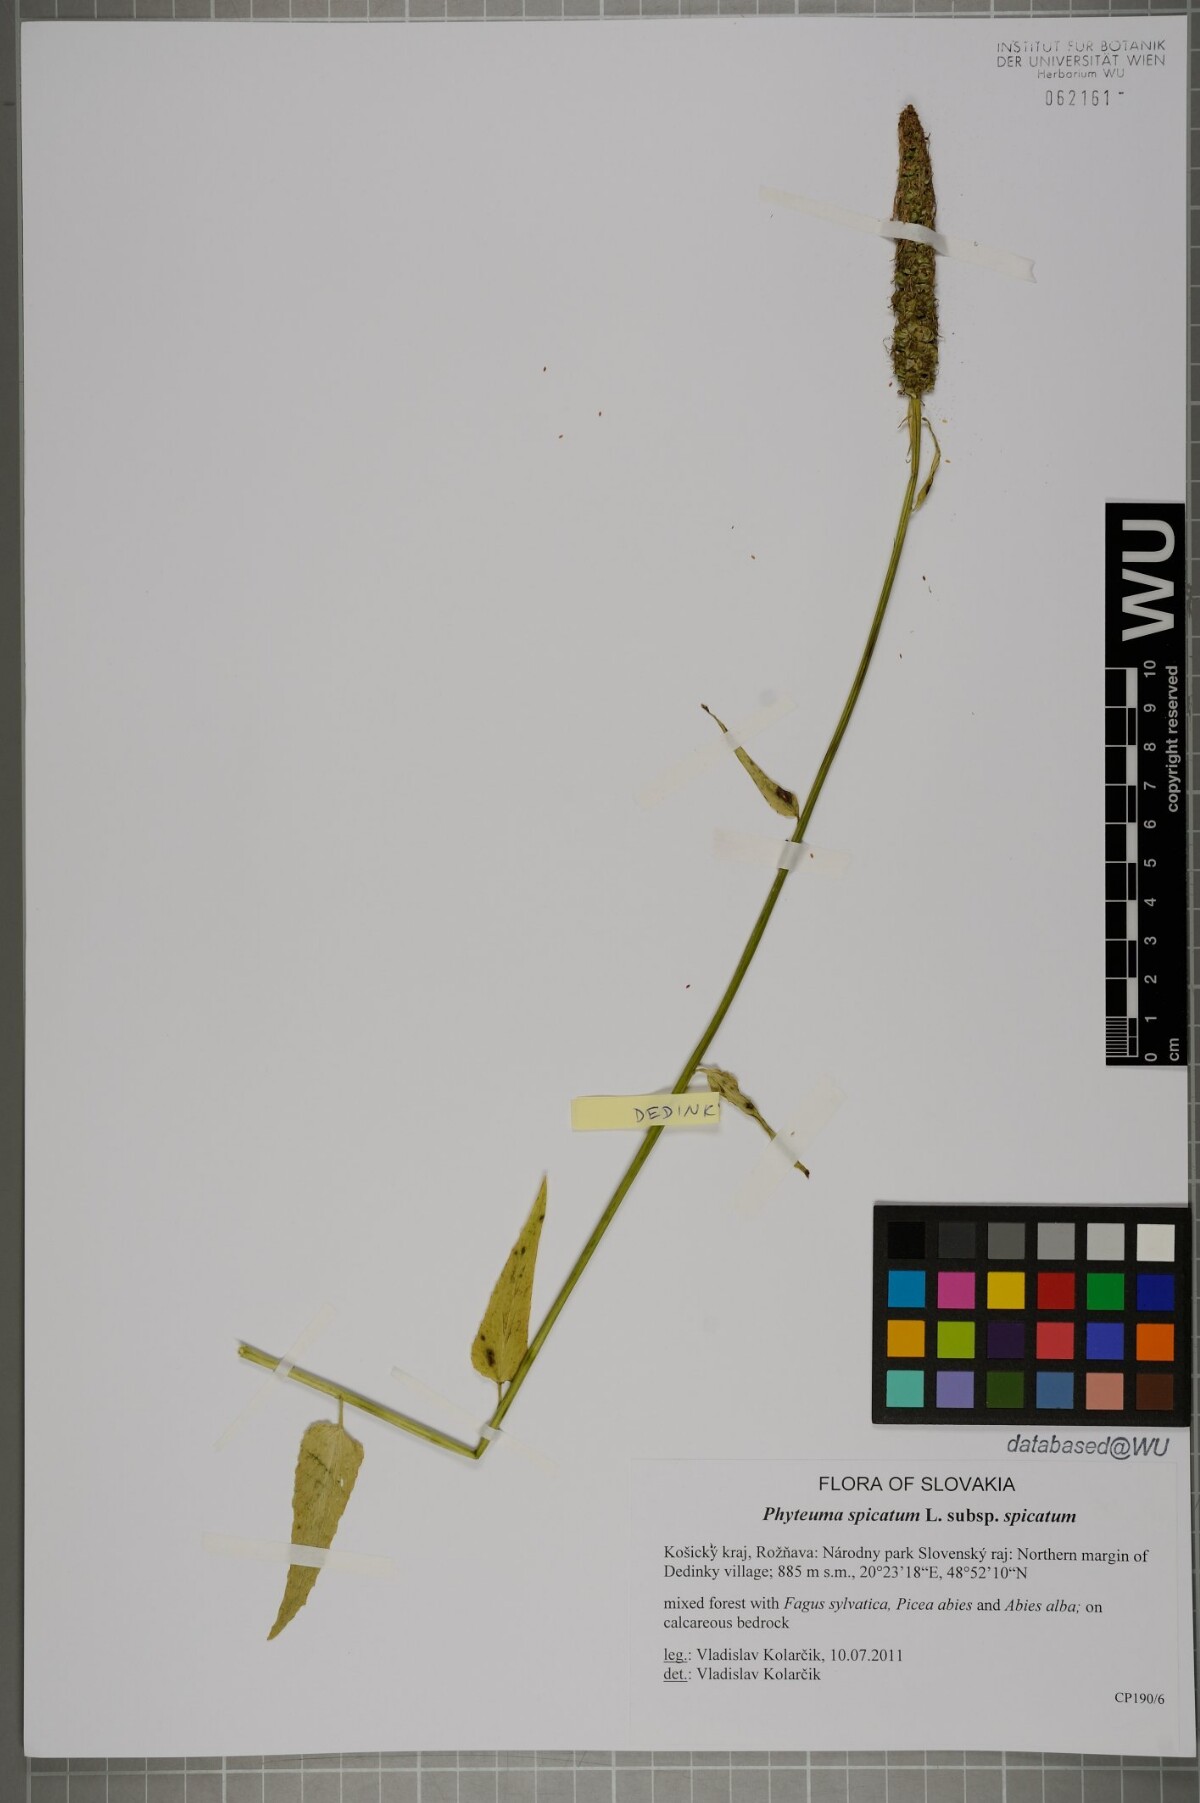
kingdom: Plantae
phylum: Tracheophyta
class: Magnoliopsida
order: Asterales
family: Campanulaceae
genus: Phyteuma
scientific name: Phyteuma spicatum
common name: Spiked rampion
